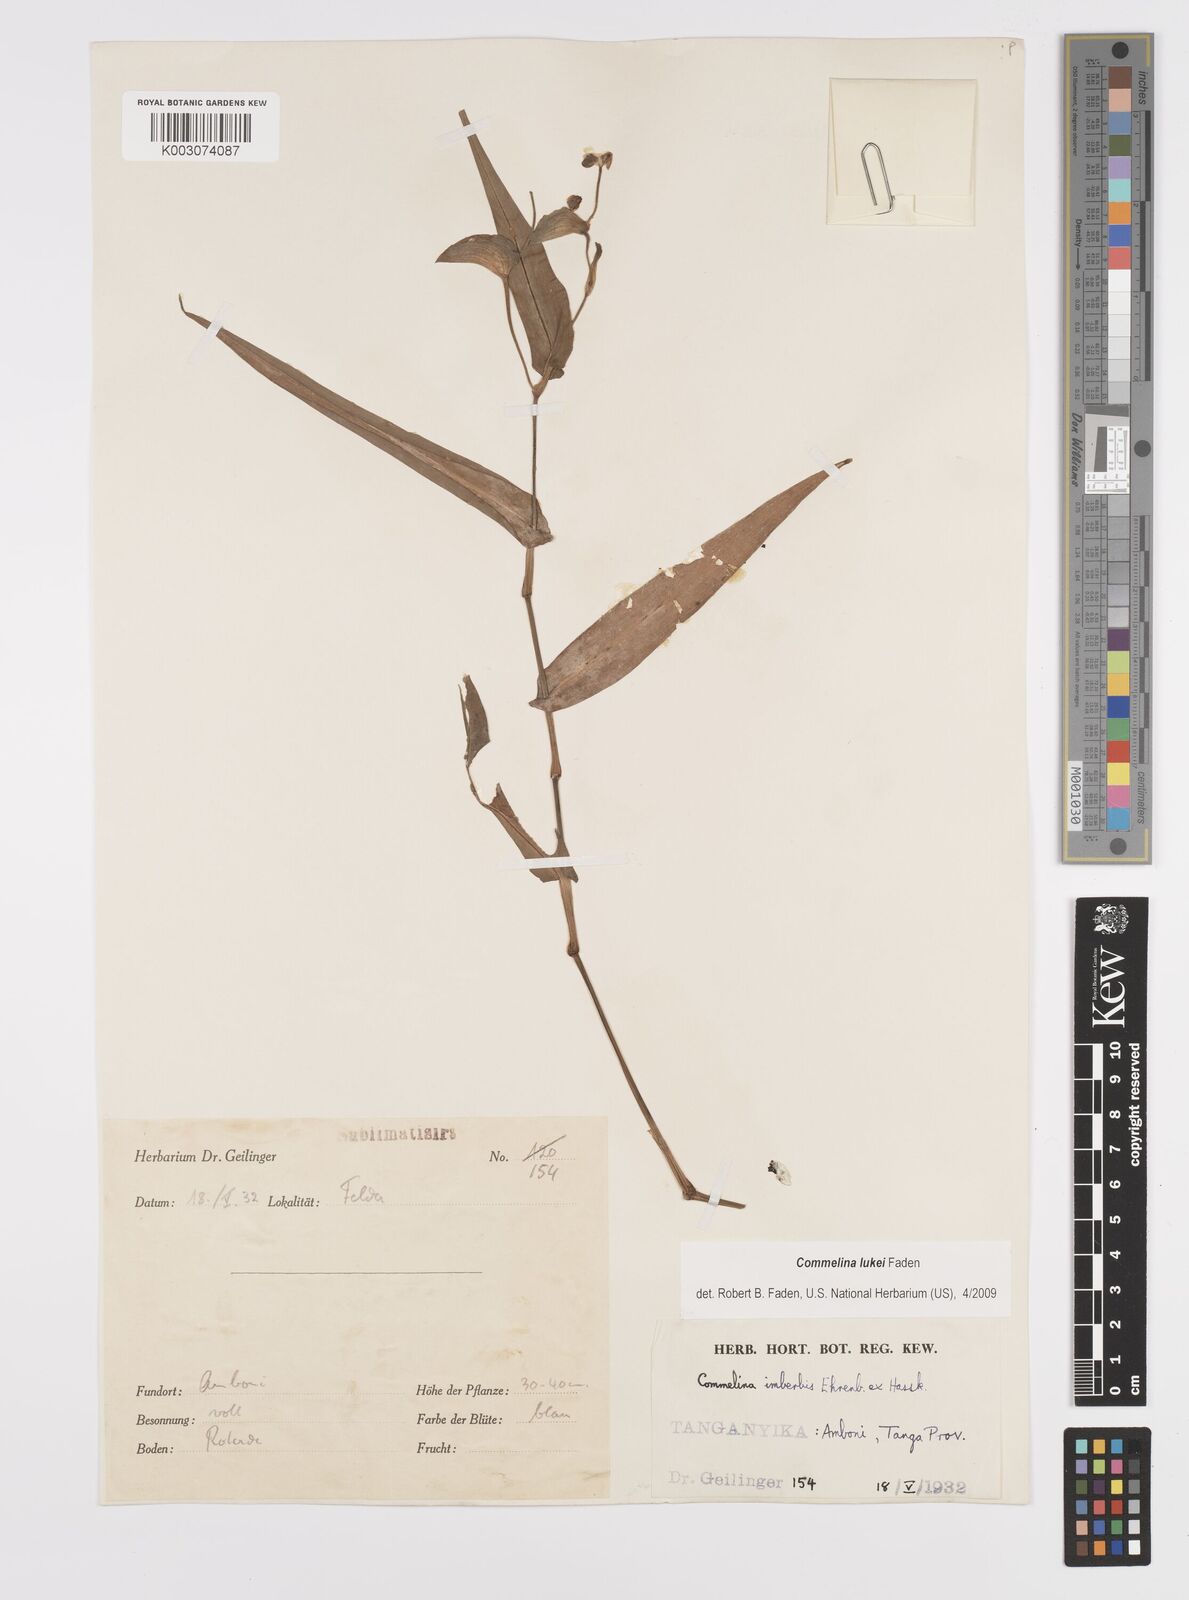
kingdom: Plantae
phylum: Tracheophyta
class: Liliopsida
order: Commelinales
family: Commelinaceae
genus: Commelina
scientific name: Commelina lukei
